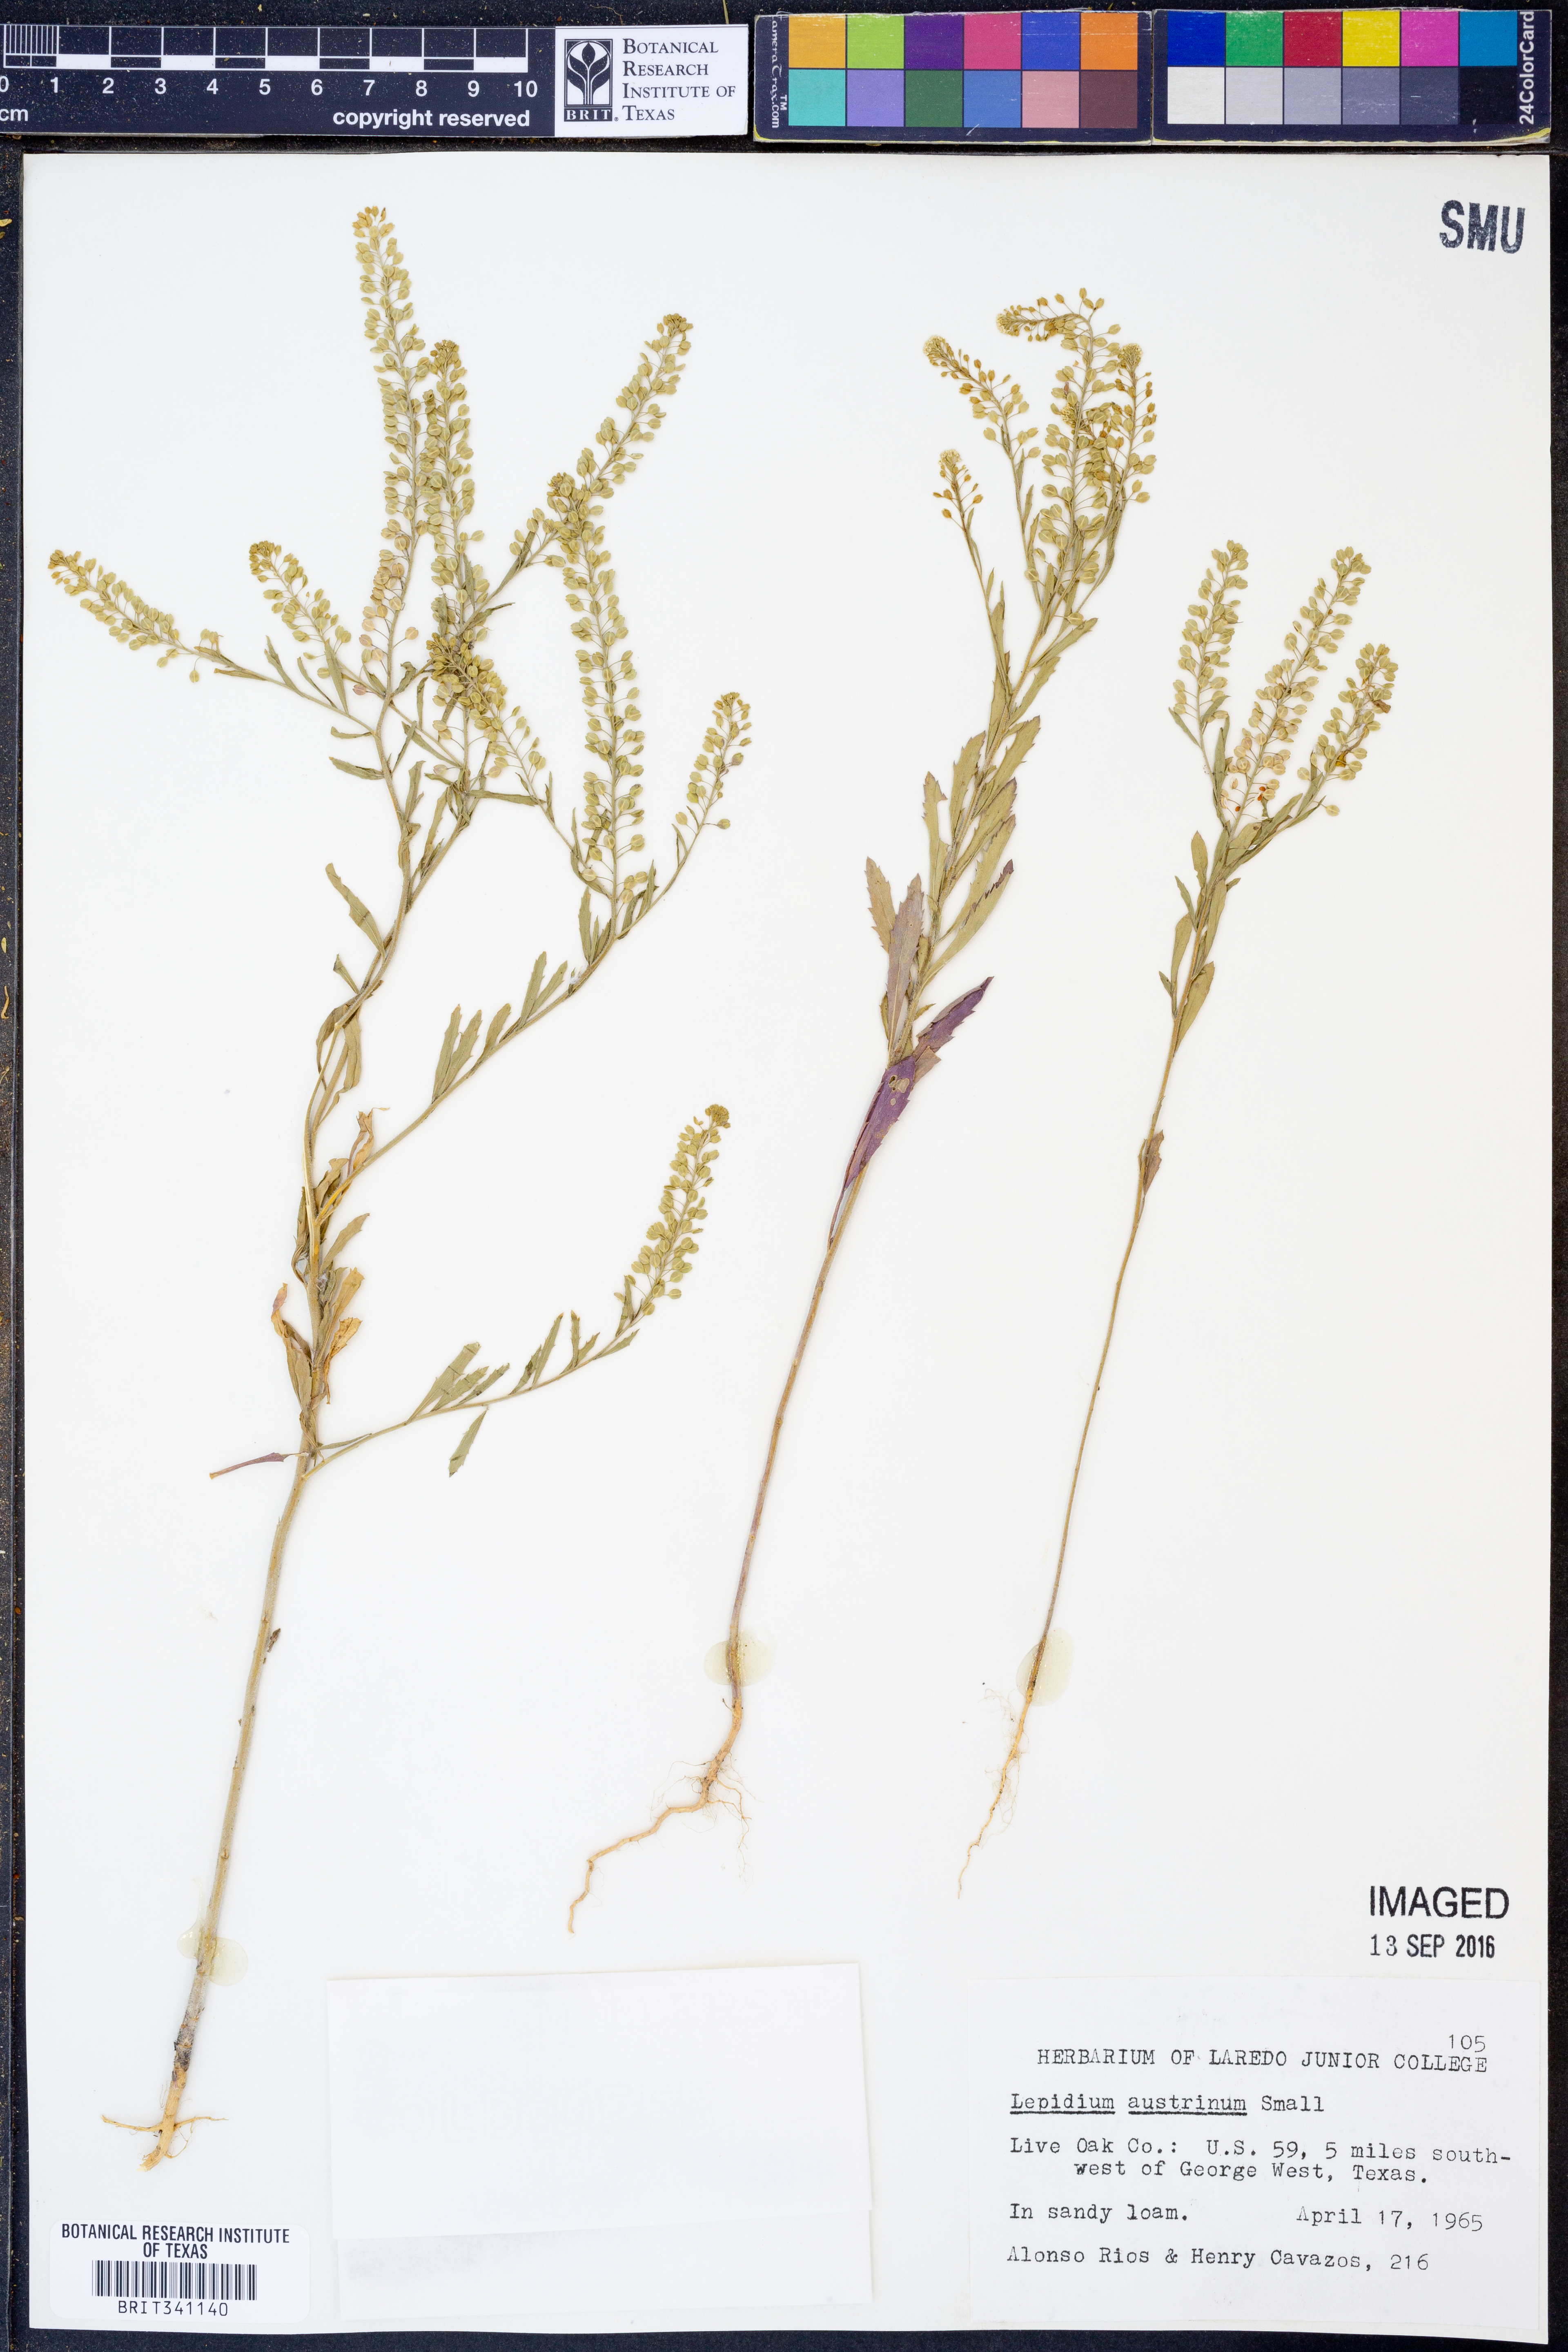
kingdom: Plantae
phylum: Tracheophyta
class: Magnoliopsida
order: Brassicales
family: Brassicaceae
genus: Lepidium
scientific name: Lepidium austrinum
